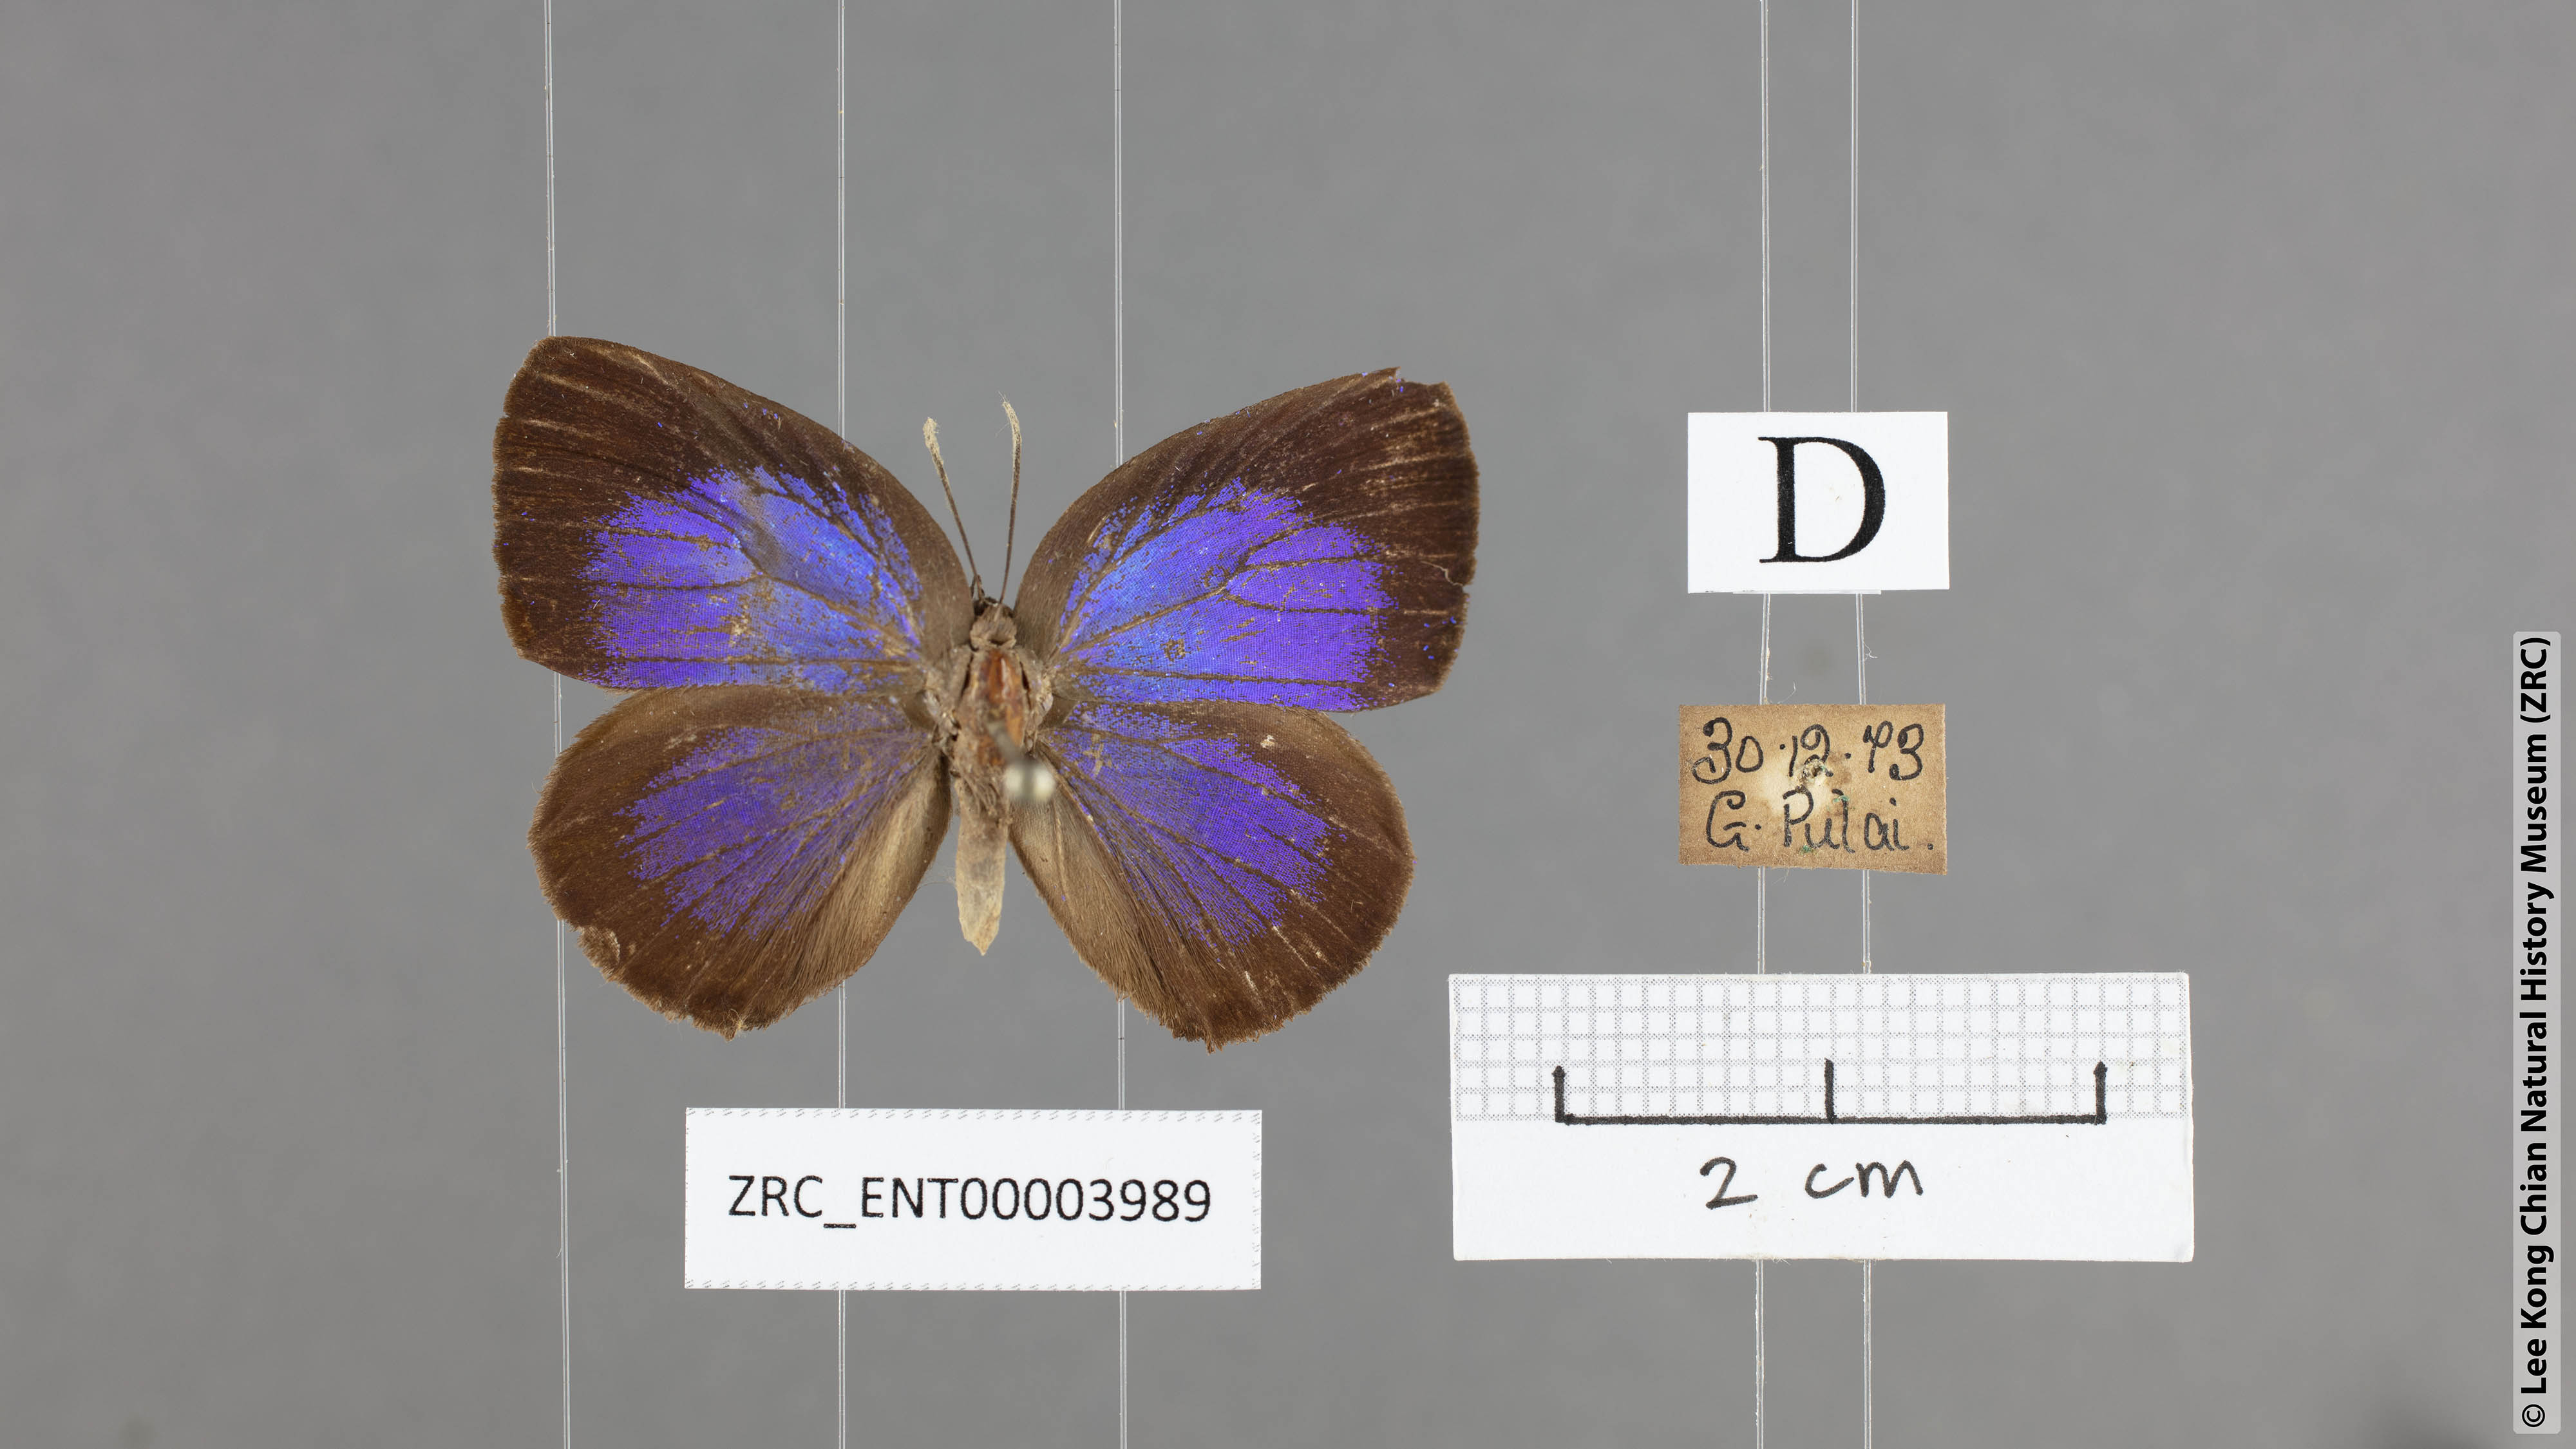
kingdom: Animalia
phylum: Arthropoda
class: Insecta
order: Lepidoptera
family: Lycaenidae
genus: Arhopala
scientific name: Arhopala major
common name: Major yellow oakblue
